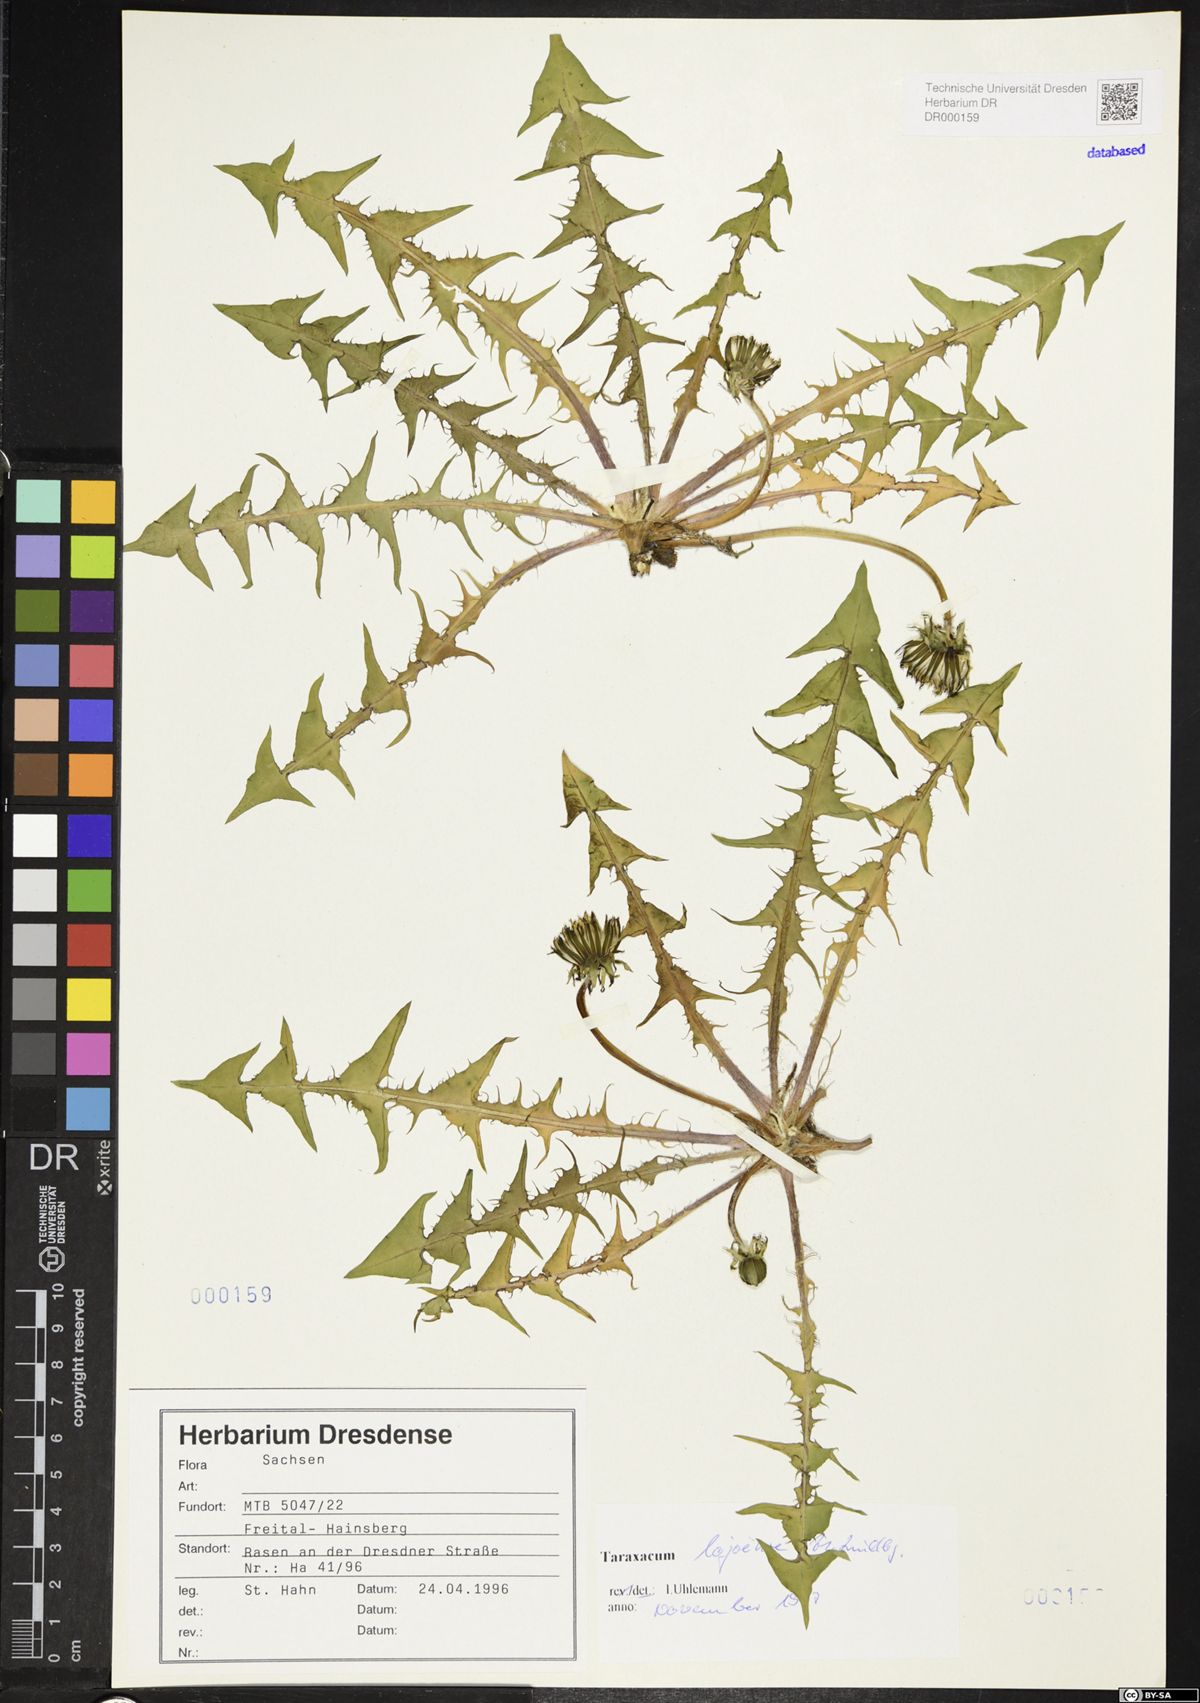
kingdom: Plantae
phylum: Tracheophyta
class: Magnoliopsida
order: Asterales
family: Asteraceae
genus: Taraxacum
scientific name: Taraxacum debrayi
